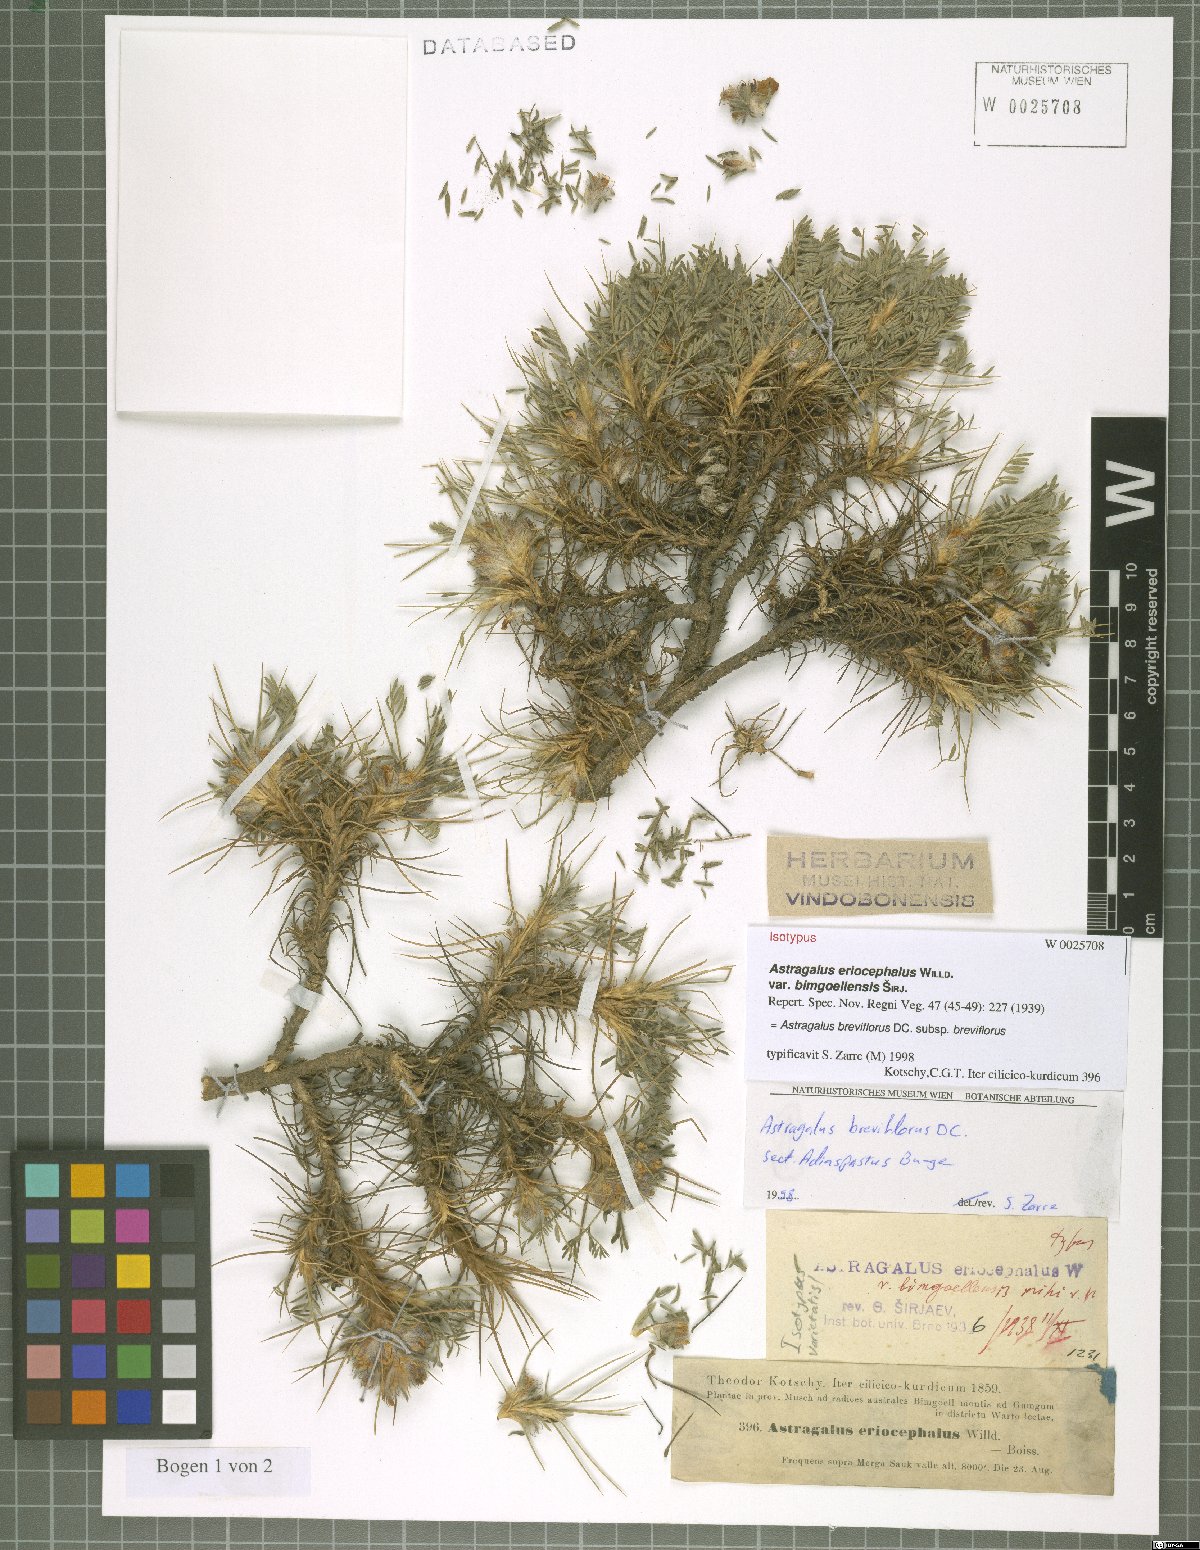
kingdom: Plantae
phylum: Tracheophyta
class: Magnoliopsida
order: Fabales
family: Fabaceae
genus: Astragalus
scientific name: Astragalus breviflorus
